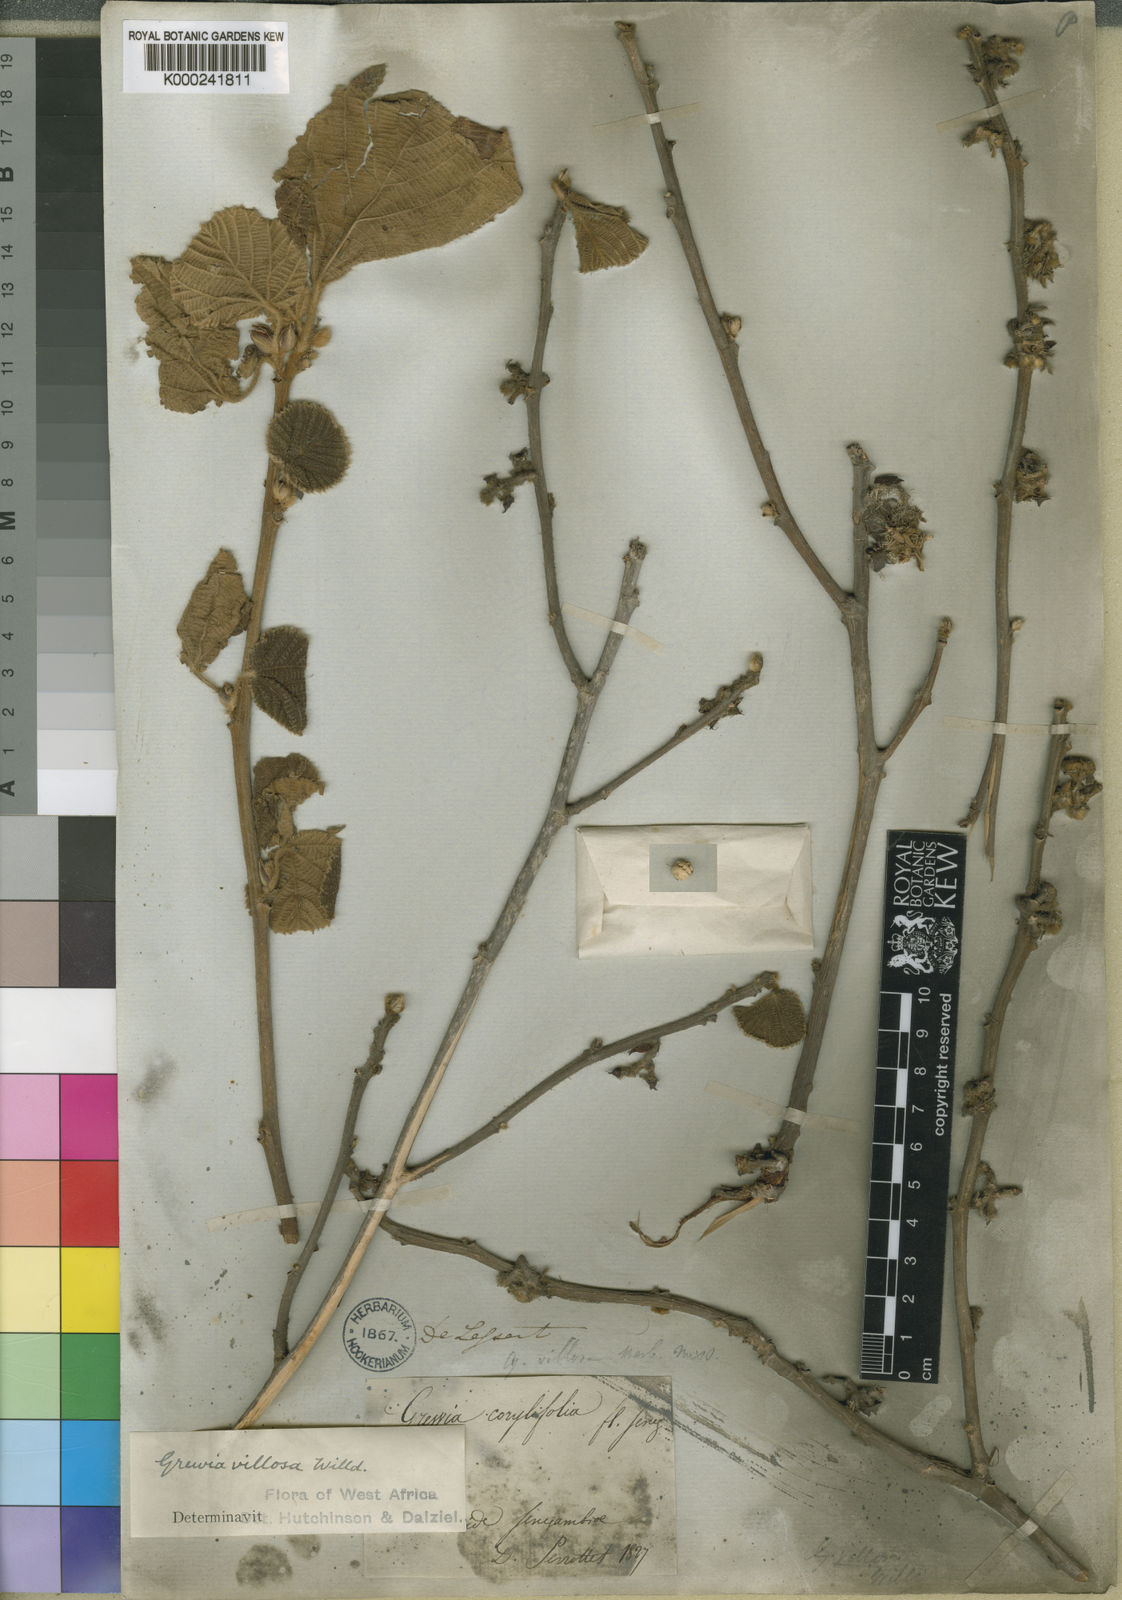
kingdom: Plantae
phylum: Tracheophyta
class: Magnoliopsida
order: Malvales
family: Malvaceae
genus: Grewia
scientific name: Grewia villosa
